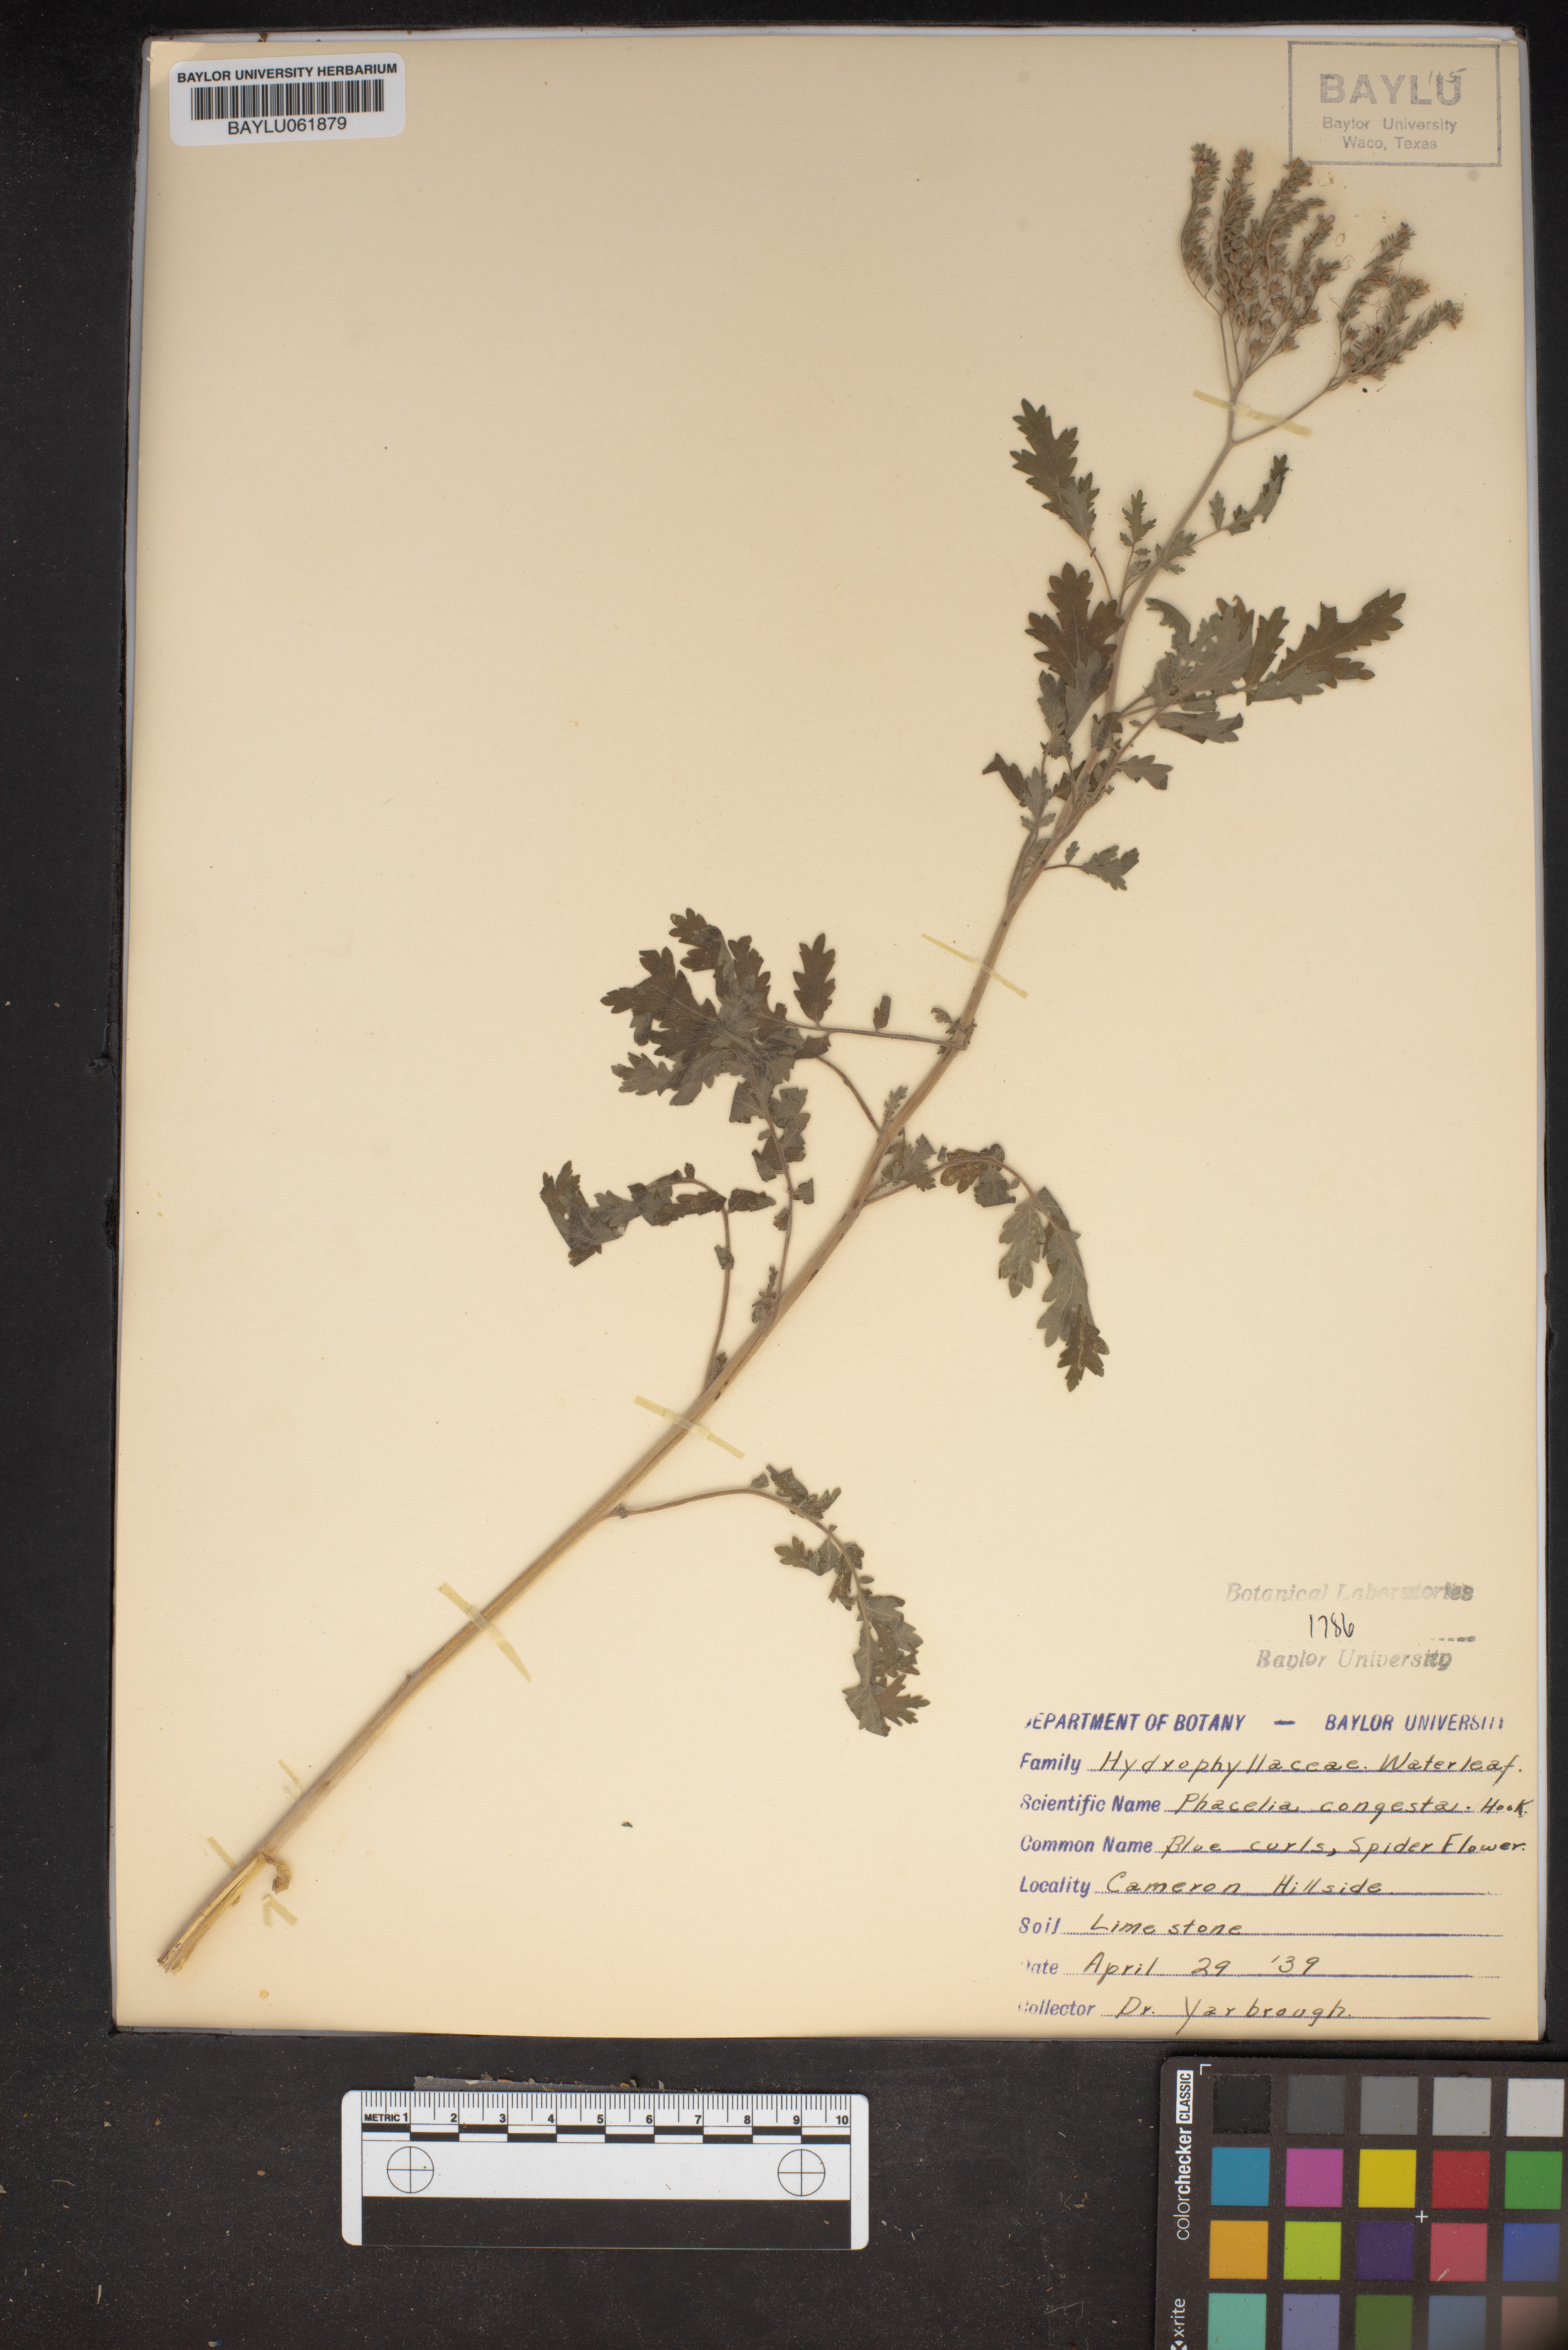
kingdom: Plantae
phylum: Tracheophyta
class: Magnoliopsida
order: Boraginales
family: Hydrophyllaceae
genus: Phacelia
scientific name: Phacelia congesta
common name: Blue curls
